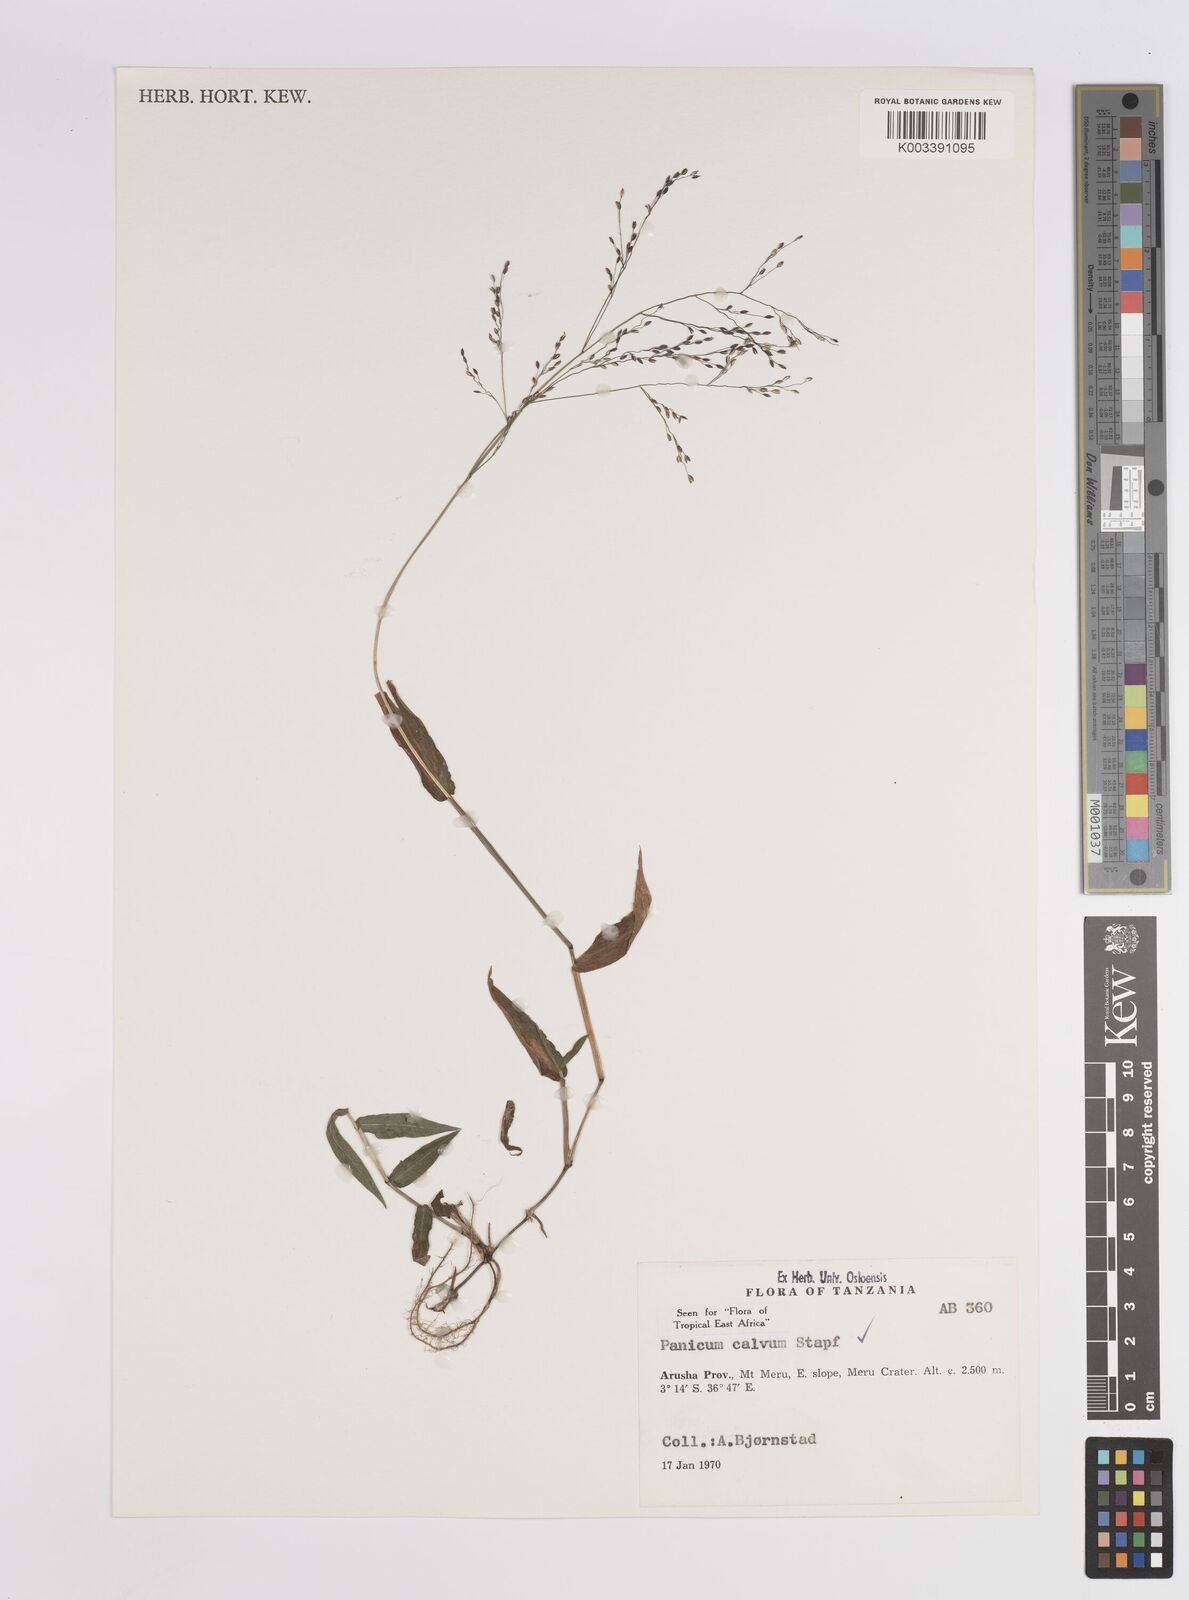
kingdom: Plantae
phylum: Tracheophyta
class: Liliopsida
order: Poales
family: Poaceae
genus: Panicum
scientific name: Panicum calvum
